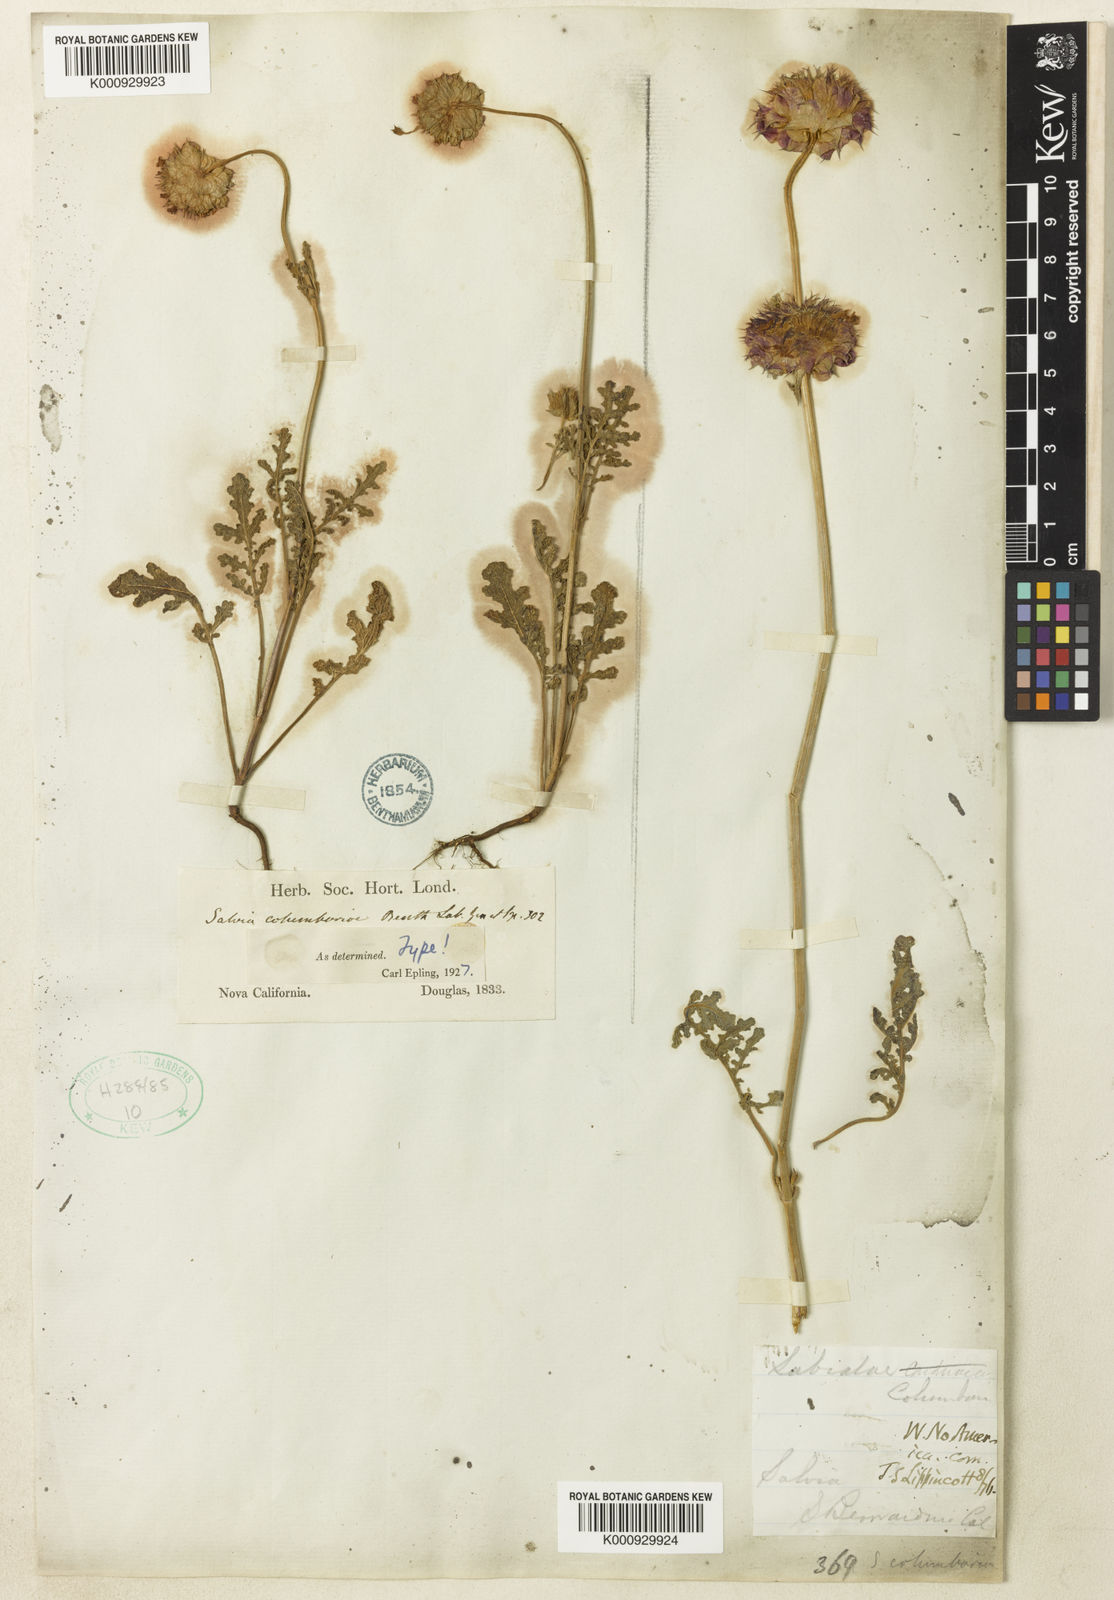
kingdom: Plantae
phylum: Tracheophyta
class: Magnoliopsida
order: Lamiales
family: Lamiaceae
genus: Salvia
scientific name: Salvia columbariae
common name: Chia
